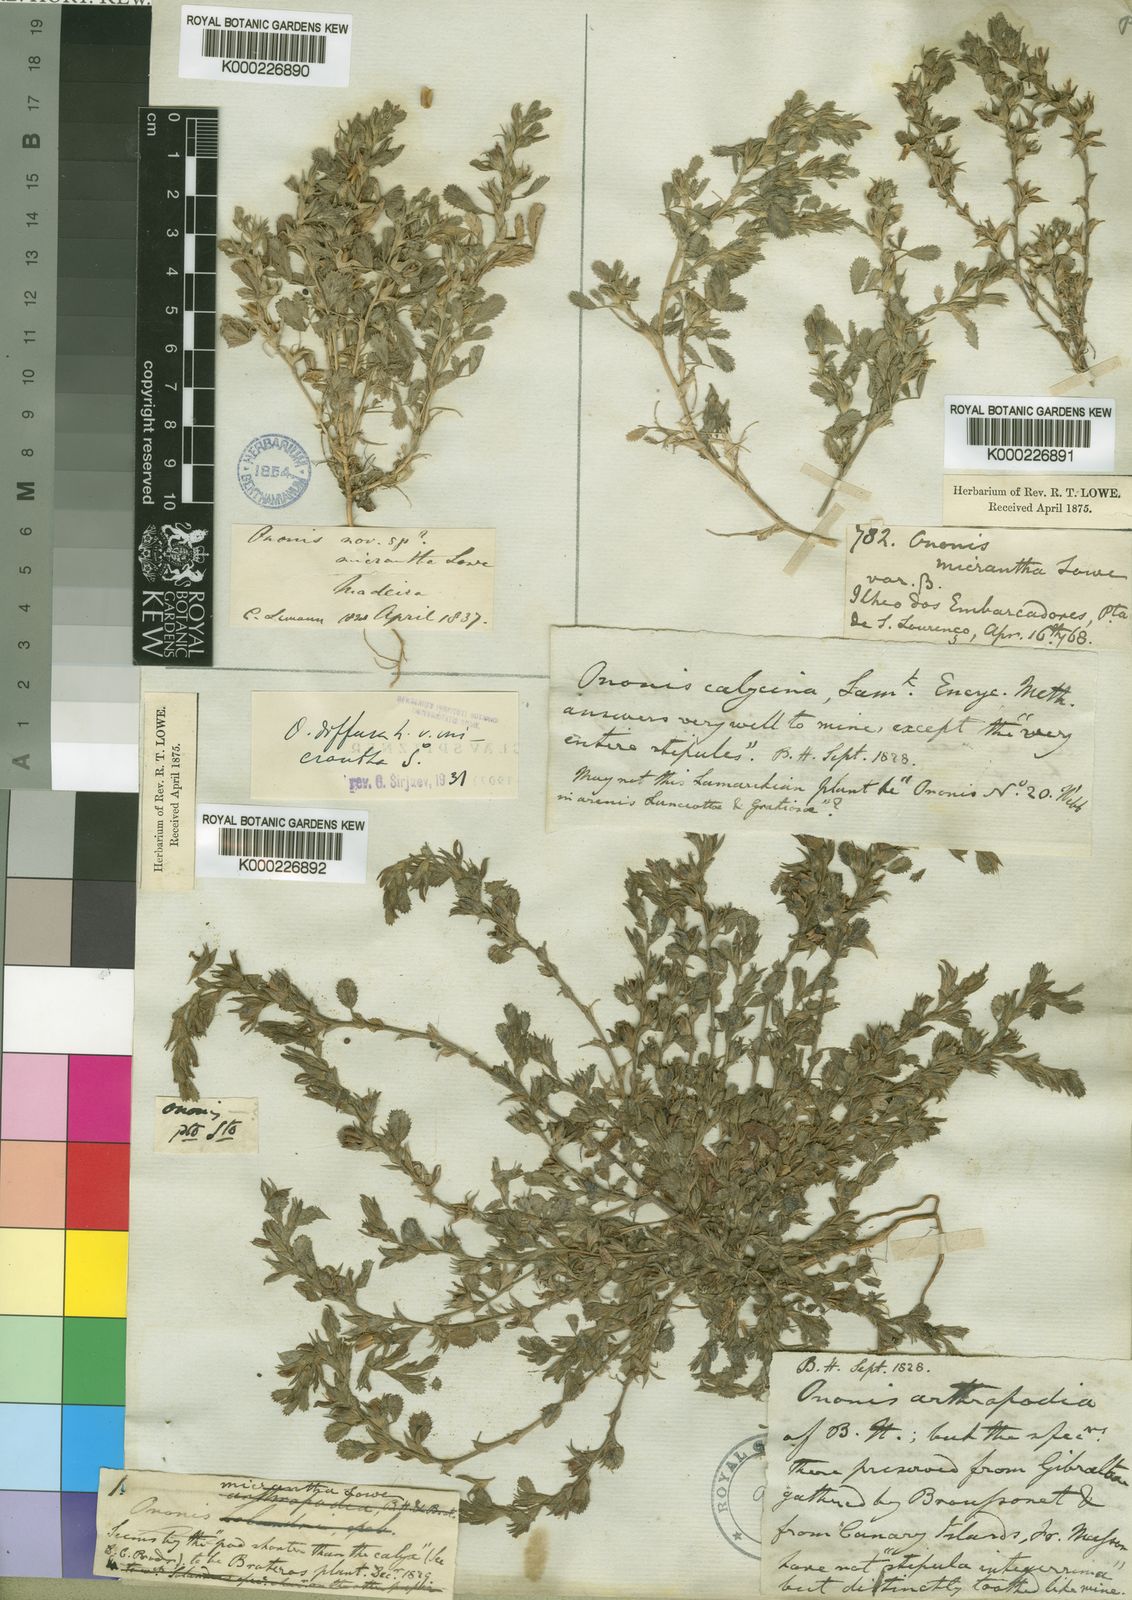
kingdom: Plantae
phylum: Tracheophyta
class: Magnoliopsida
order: Fabales
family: Fabaceae
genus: Ononis
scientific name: Ononis cossoniana
